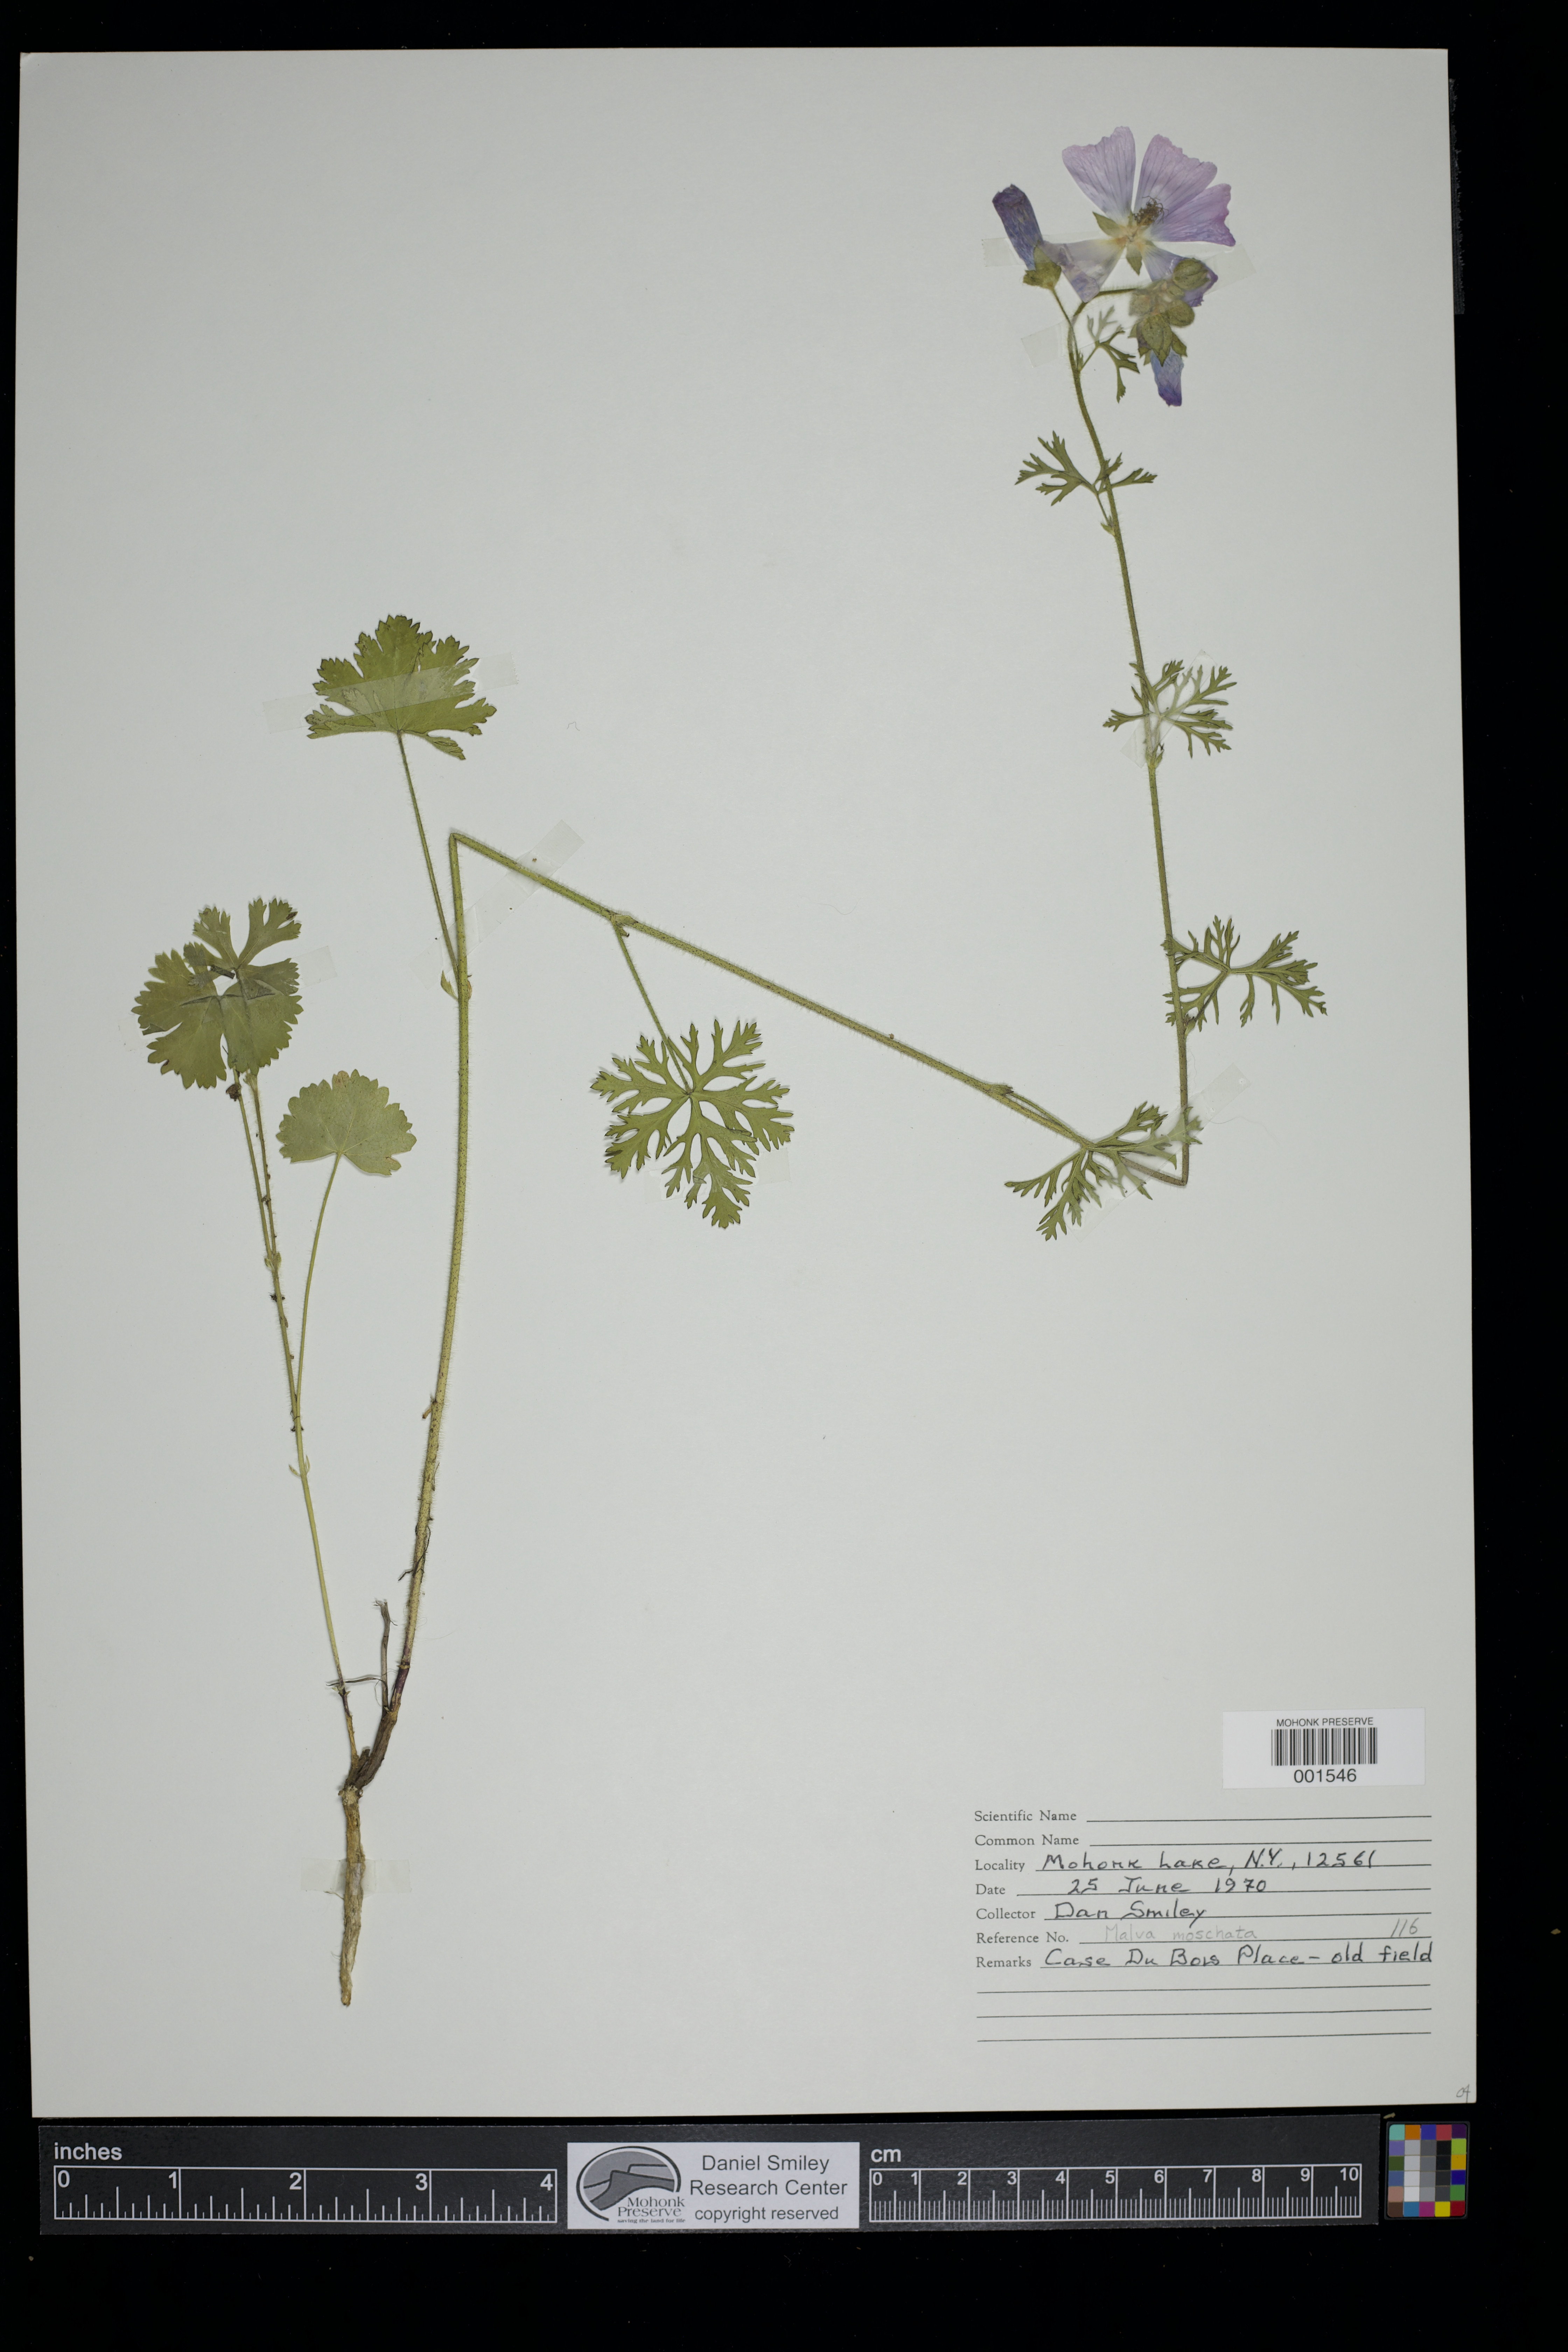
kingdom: Plantae
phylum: Tracheophyta
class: Magnoliopsida
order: Malvales
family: Malvaceae
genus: Malva
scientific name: Malva moschata
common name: Musk mallow
